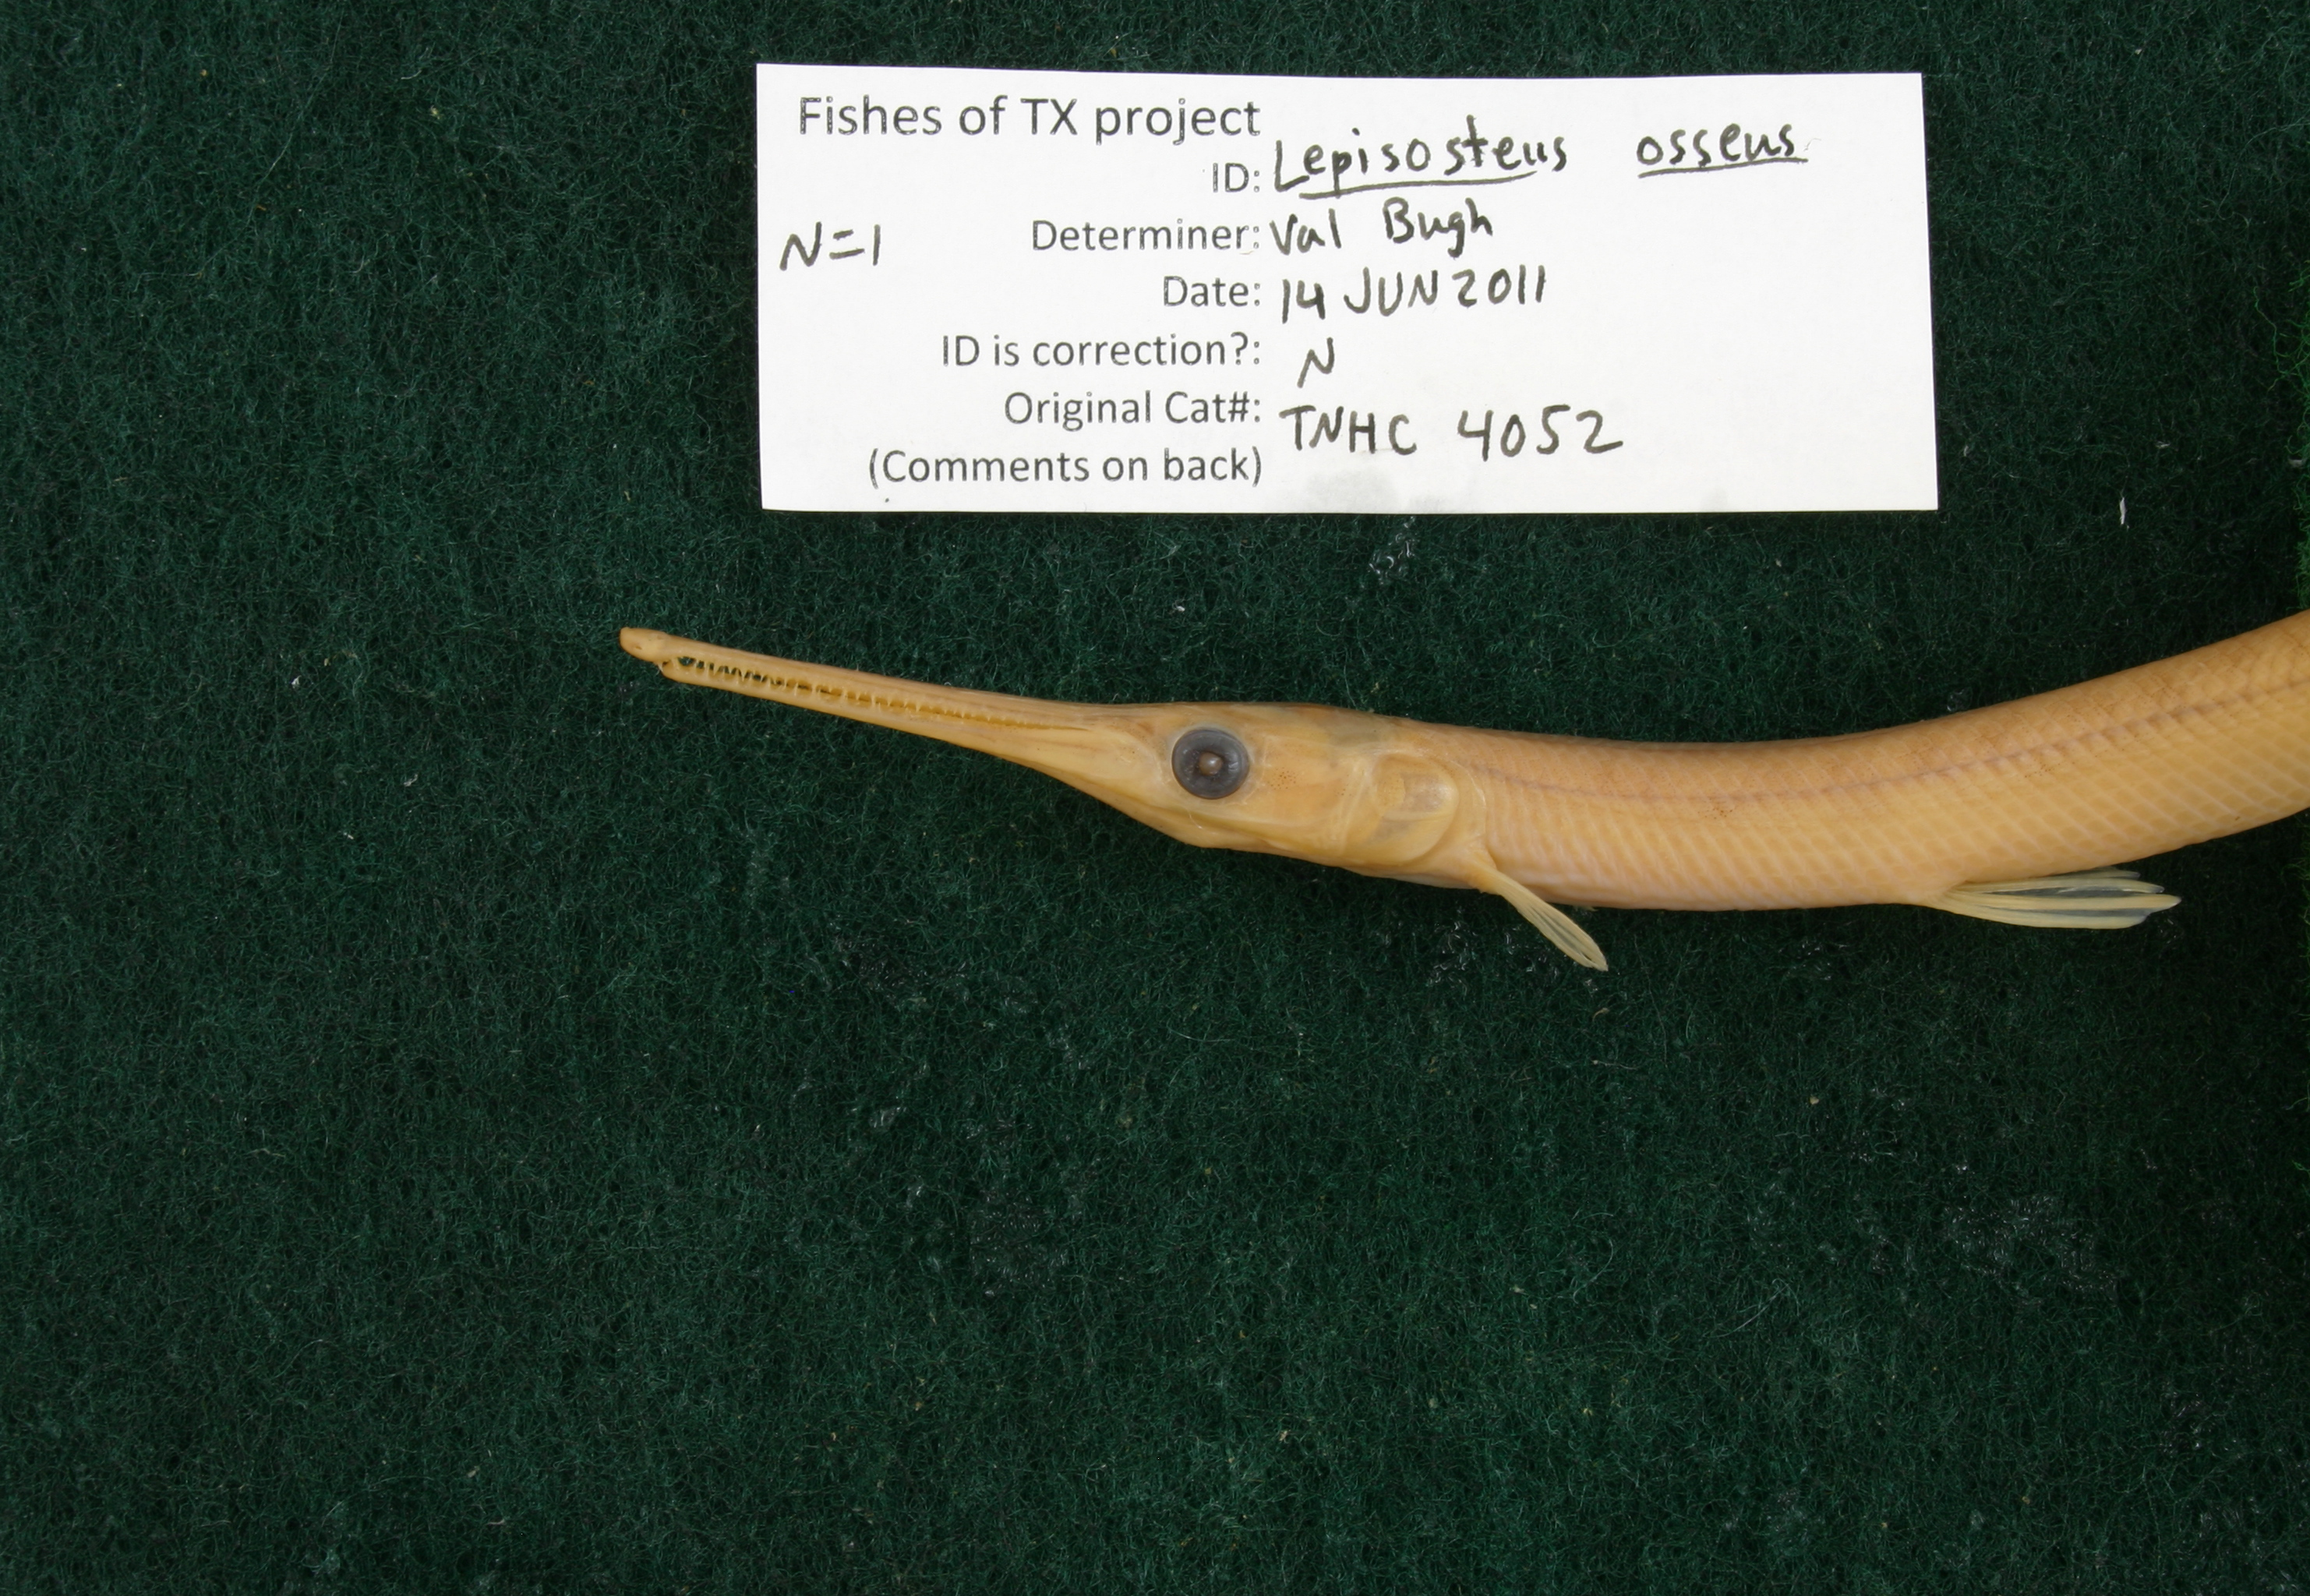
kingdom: Animalia
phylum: Chordata
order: Lepisosteiformes
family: Lepisosteidae
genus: Lepisosteus
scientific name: Lepisosteus osseus
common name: Longnose gar
